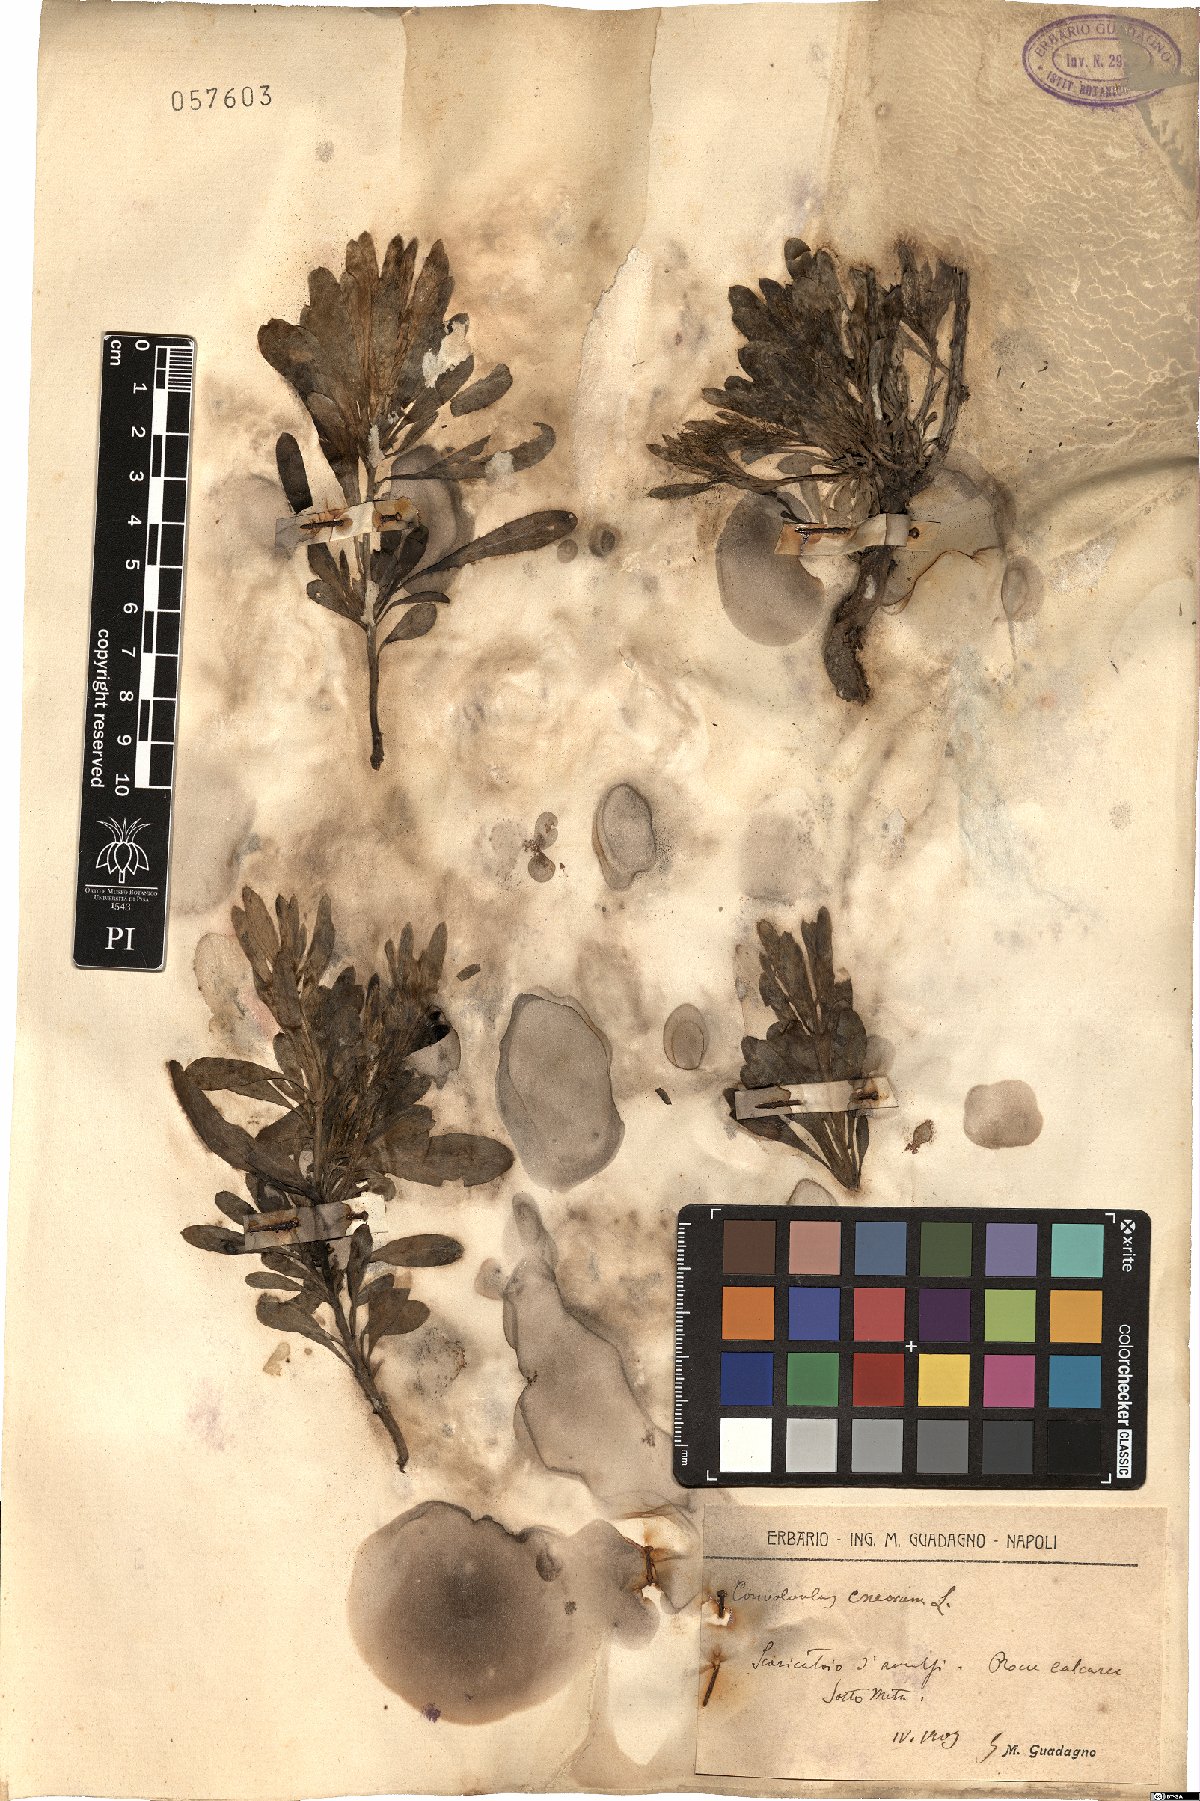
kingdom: Plantae
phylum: Tracheophyta
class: Magnoliopsida
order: Solanales
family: Convolvulaceae
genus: Convolvulus
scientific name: Convolvulus cneorum
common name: Silverbush
